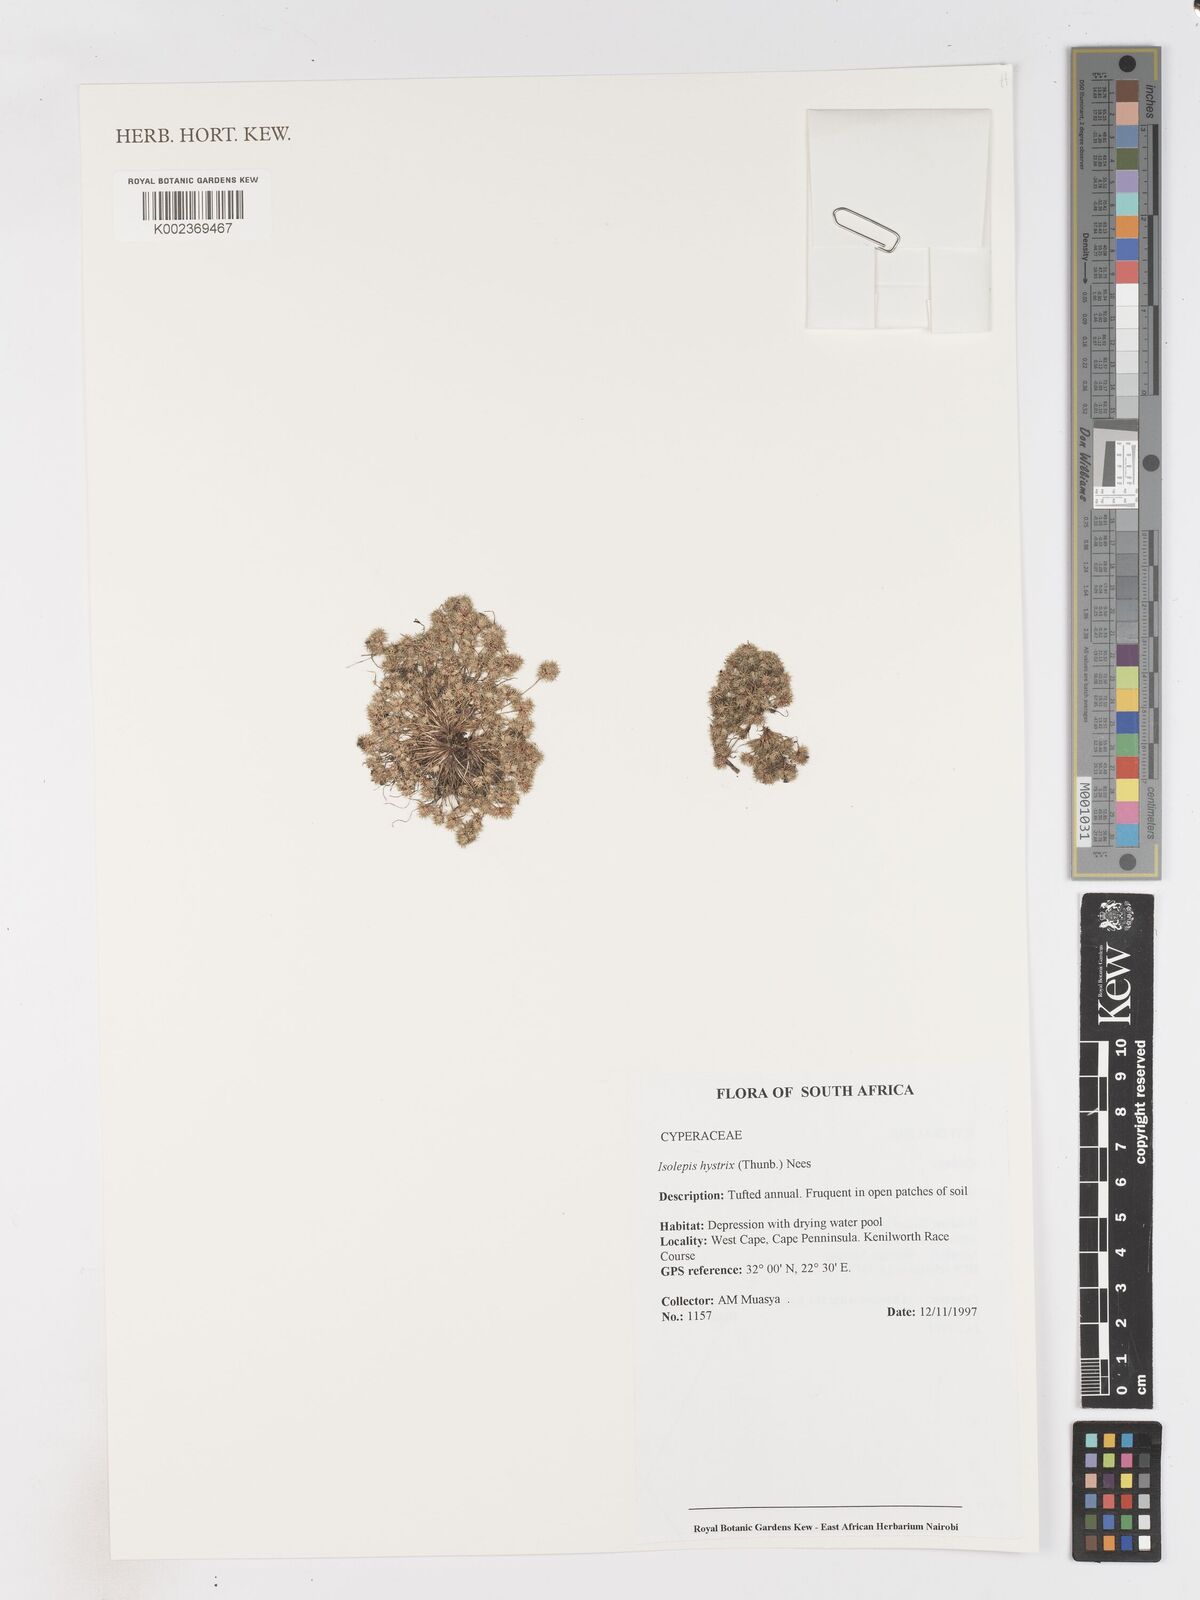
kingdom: Plantae
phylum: Tracheophyta
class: Liliopsida
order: Poales
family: Cyperaceae
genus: Isolepis
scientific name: Isolepis hystrix
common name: Bottlebrush bulrush
